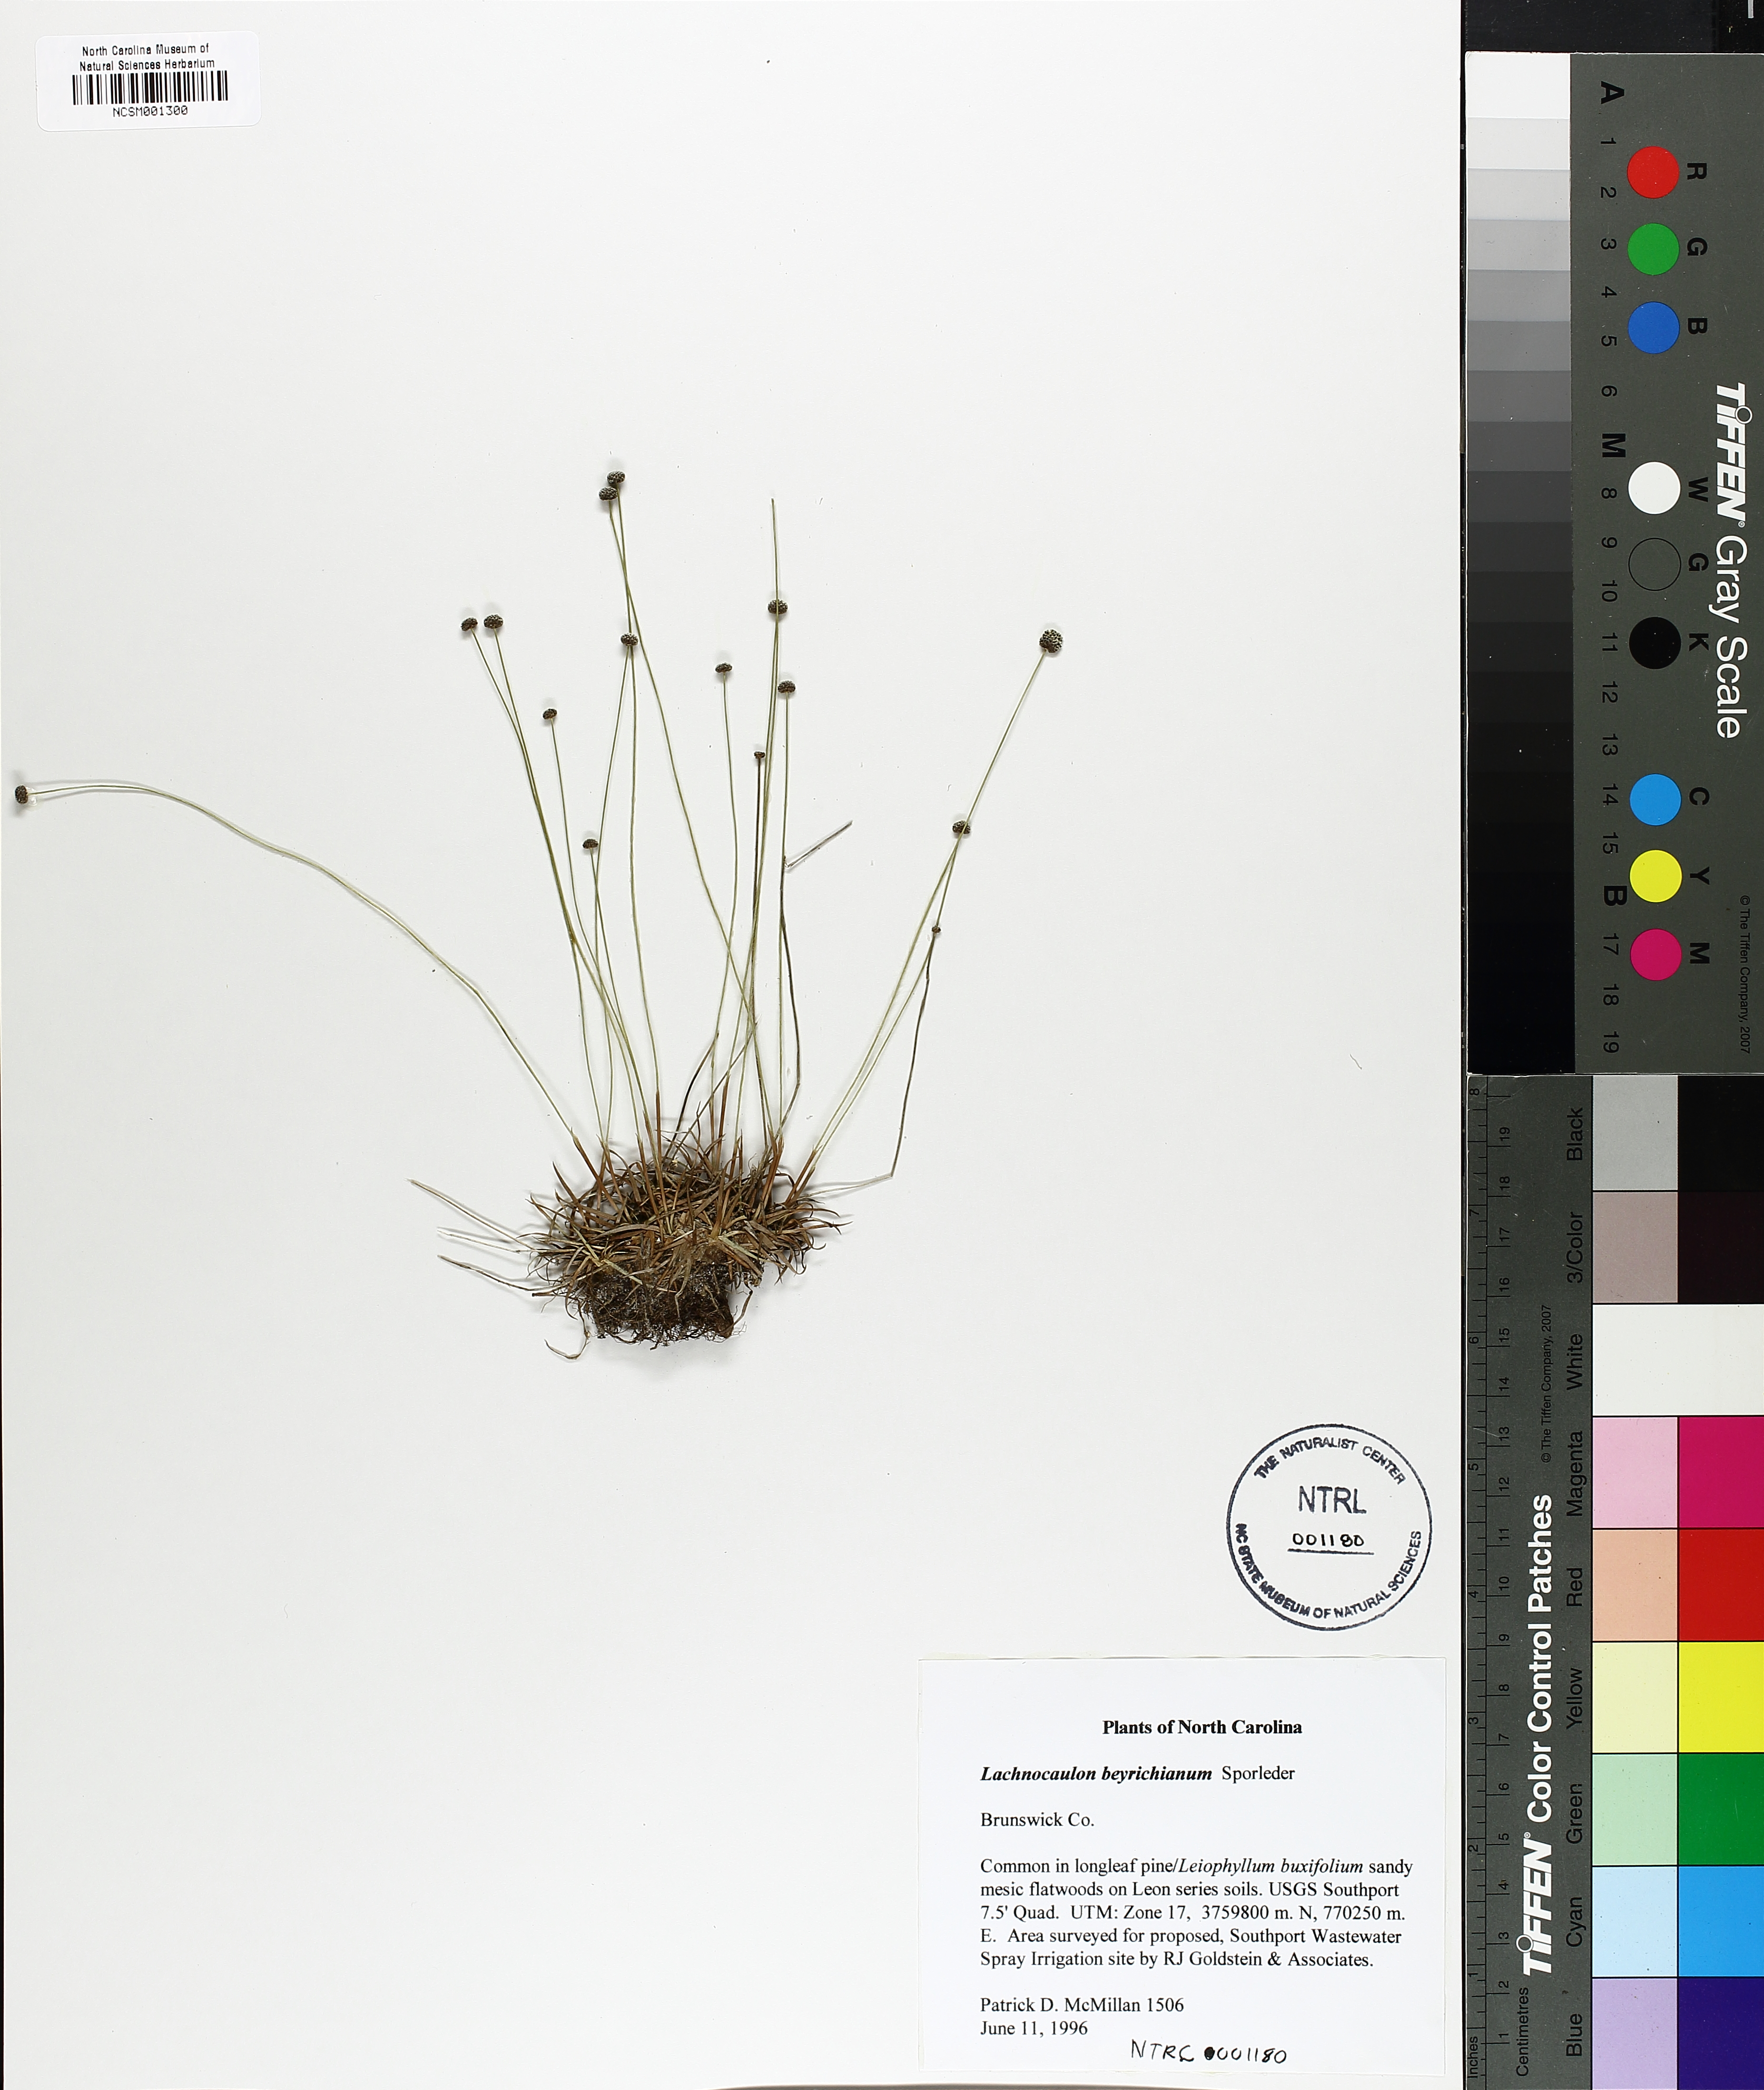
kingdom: Plantae
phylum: Tracheophyta
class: Liliopsida
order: Poales
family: Eriocaulaceae
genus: Paepalanthus
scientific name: Paepalanthus beyrichianus
